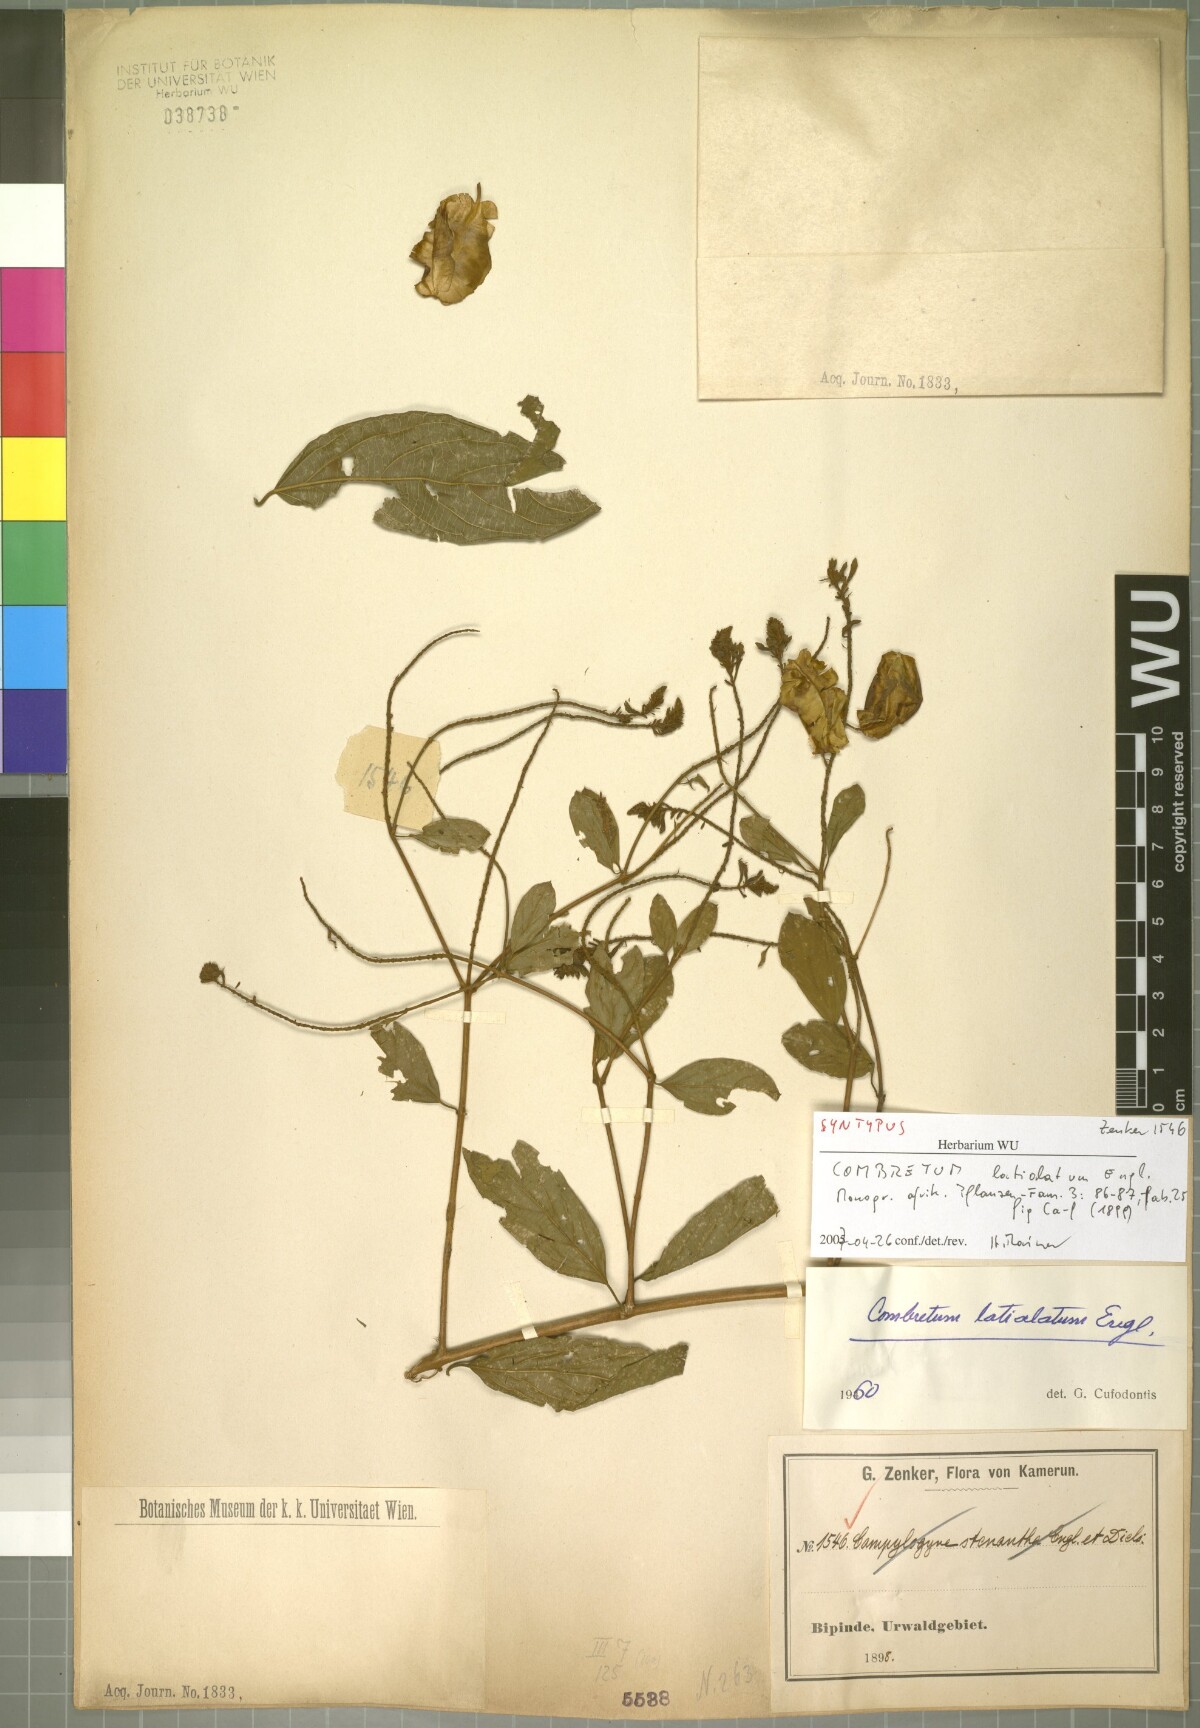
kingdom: Plantae
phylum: Tracheophyta
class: Magnoliopsida
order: Myrtales
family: Combretaceae
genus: Combretum
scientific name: Combretum latialatum
